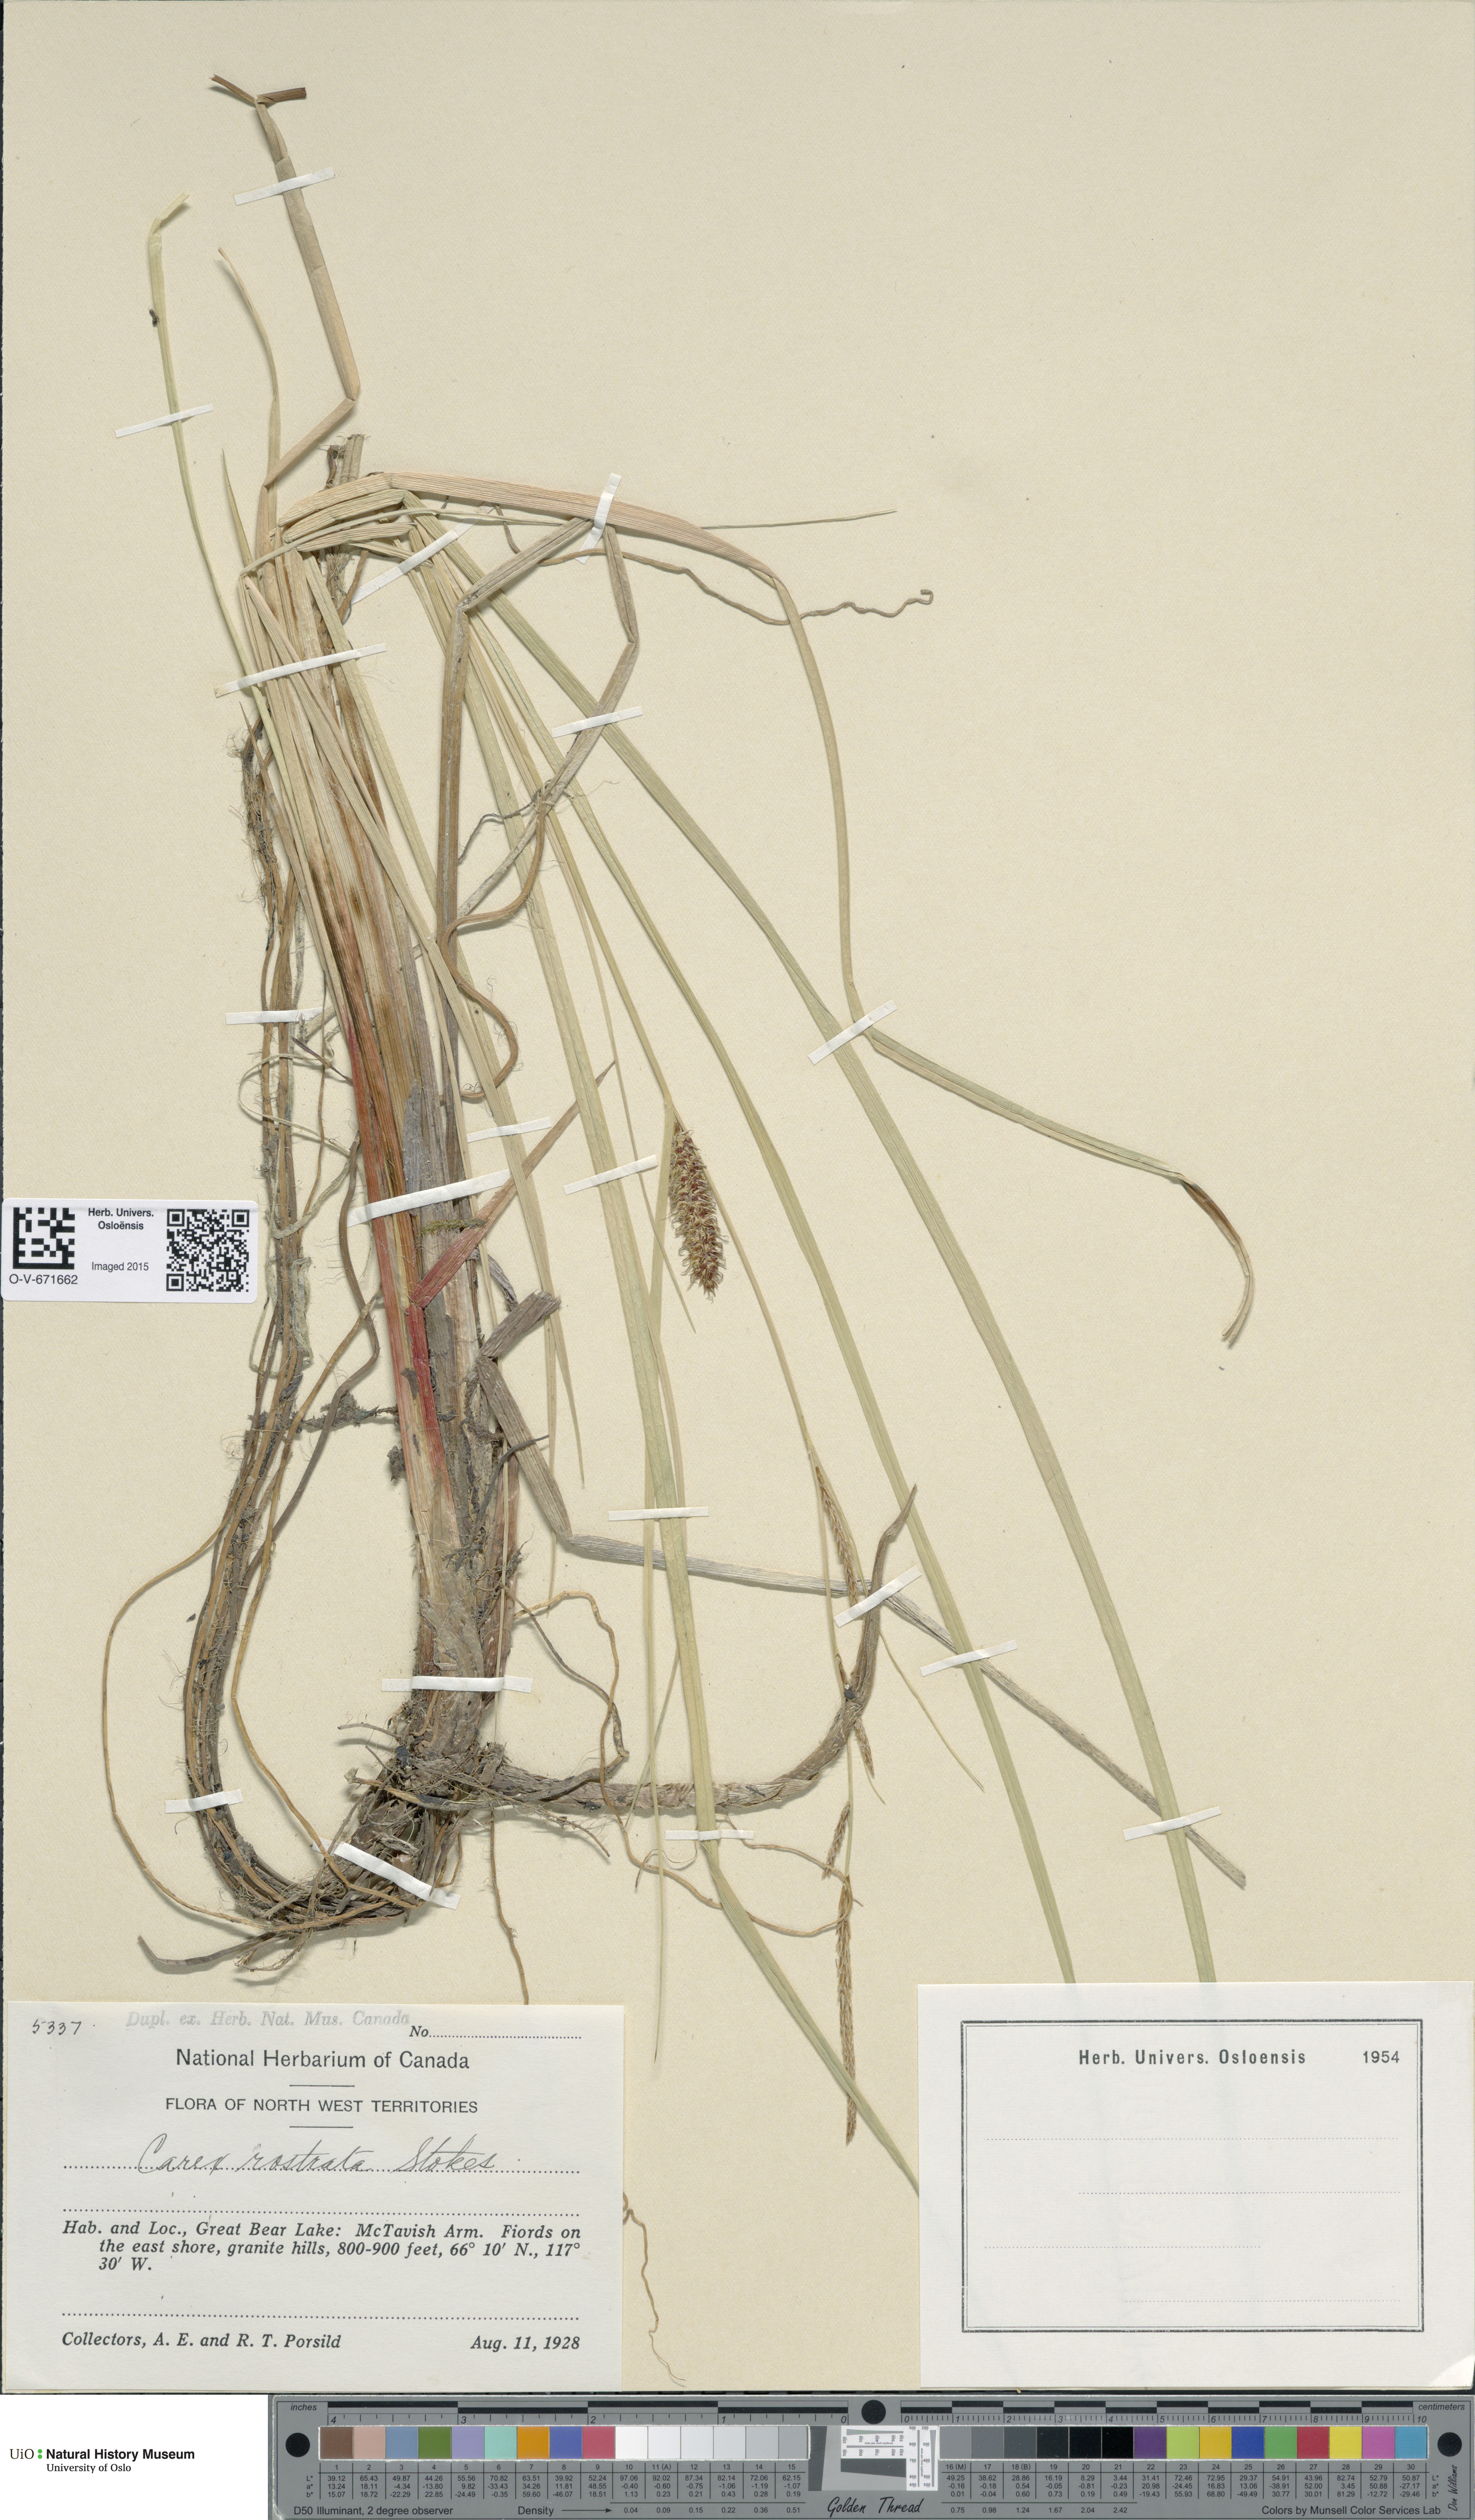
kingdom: Plantae
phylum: Tracheophyta
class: Liliopsida
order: Poales
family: Cyperaceae
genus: Carex
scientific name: Carex rostrata
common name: Bottle sedge
